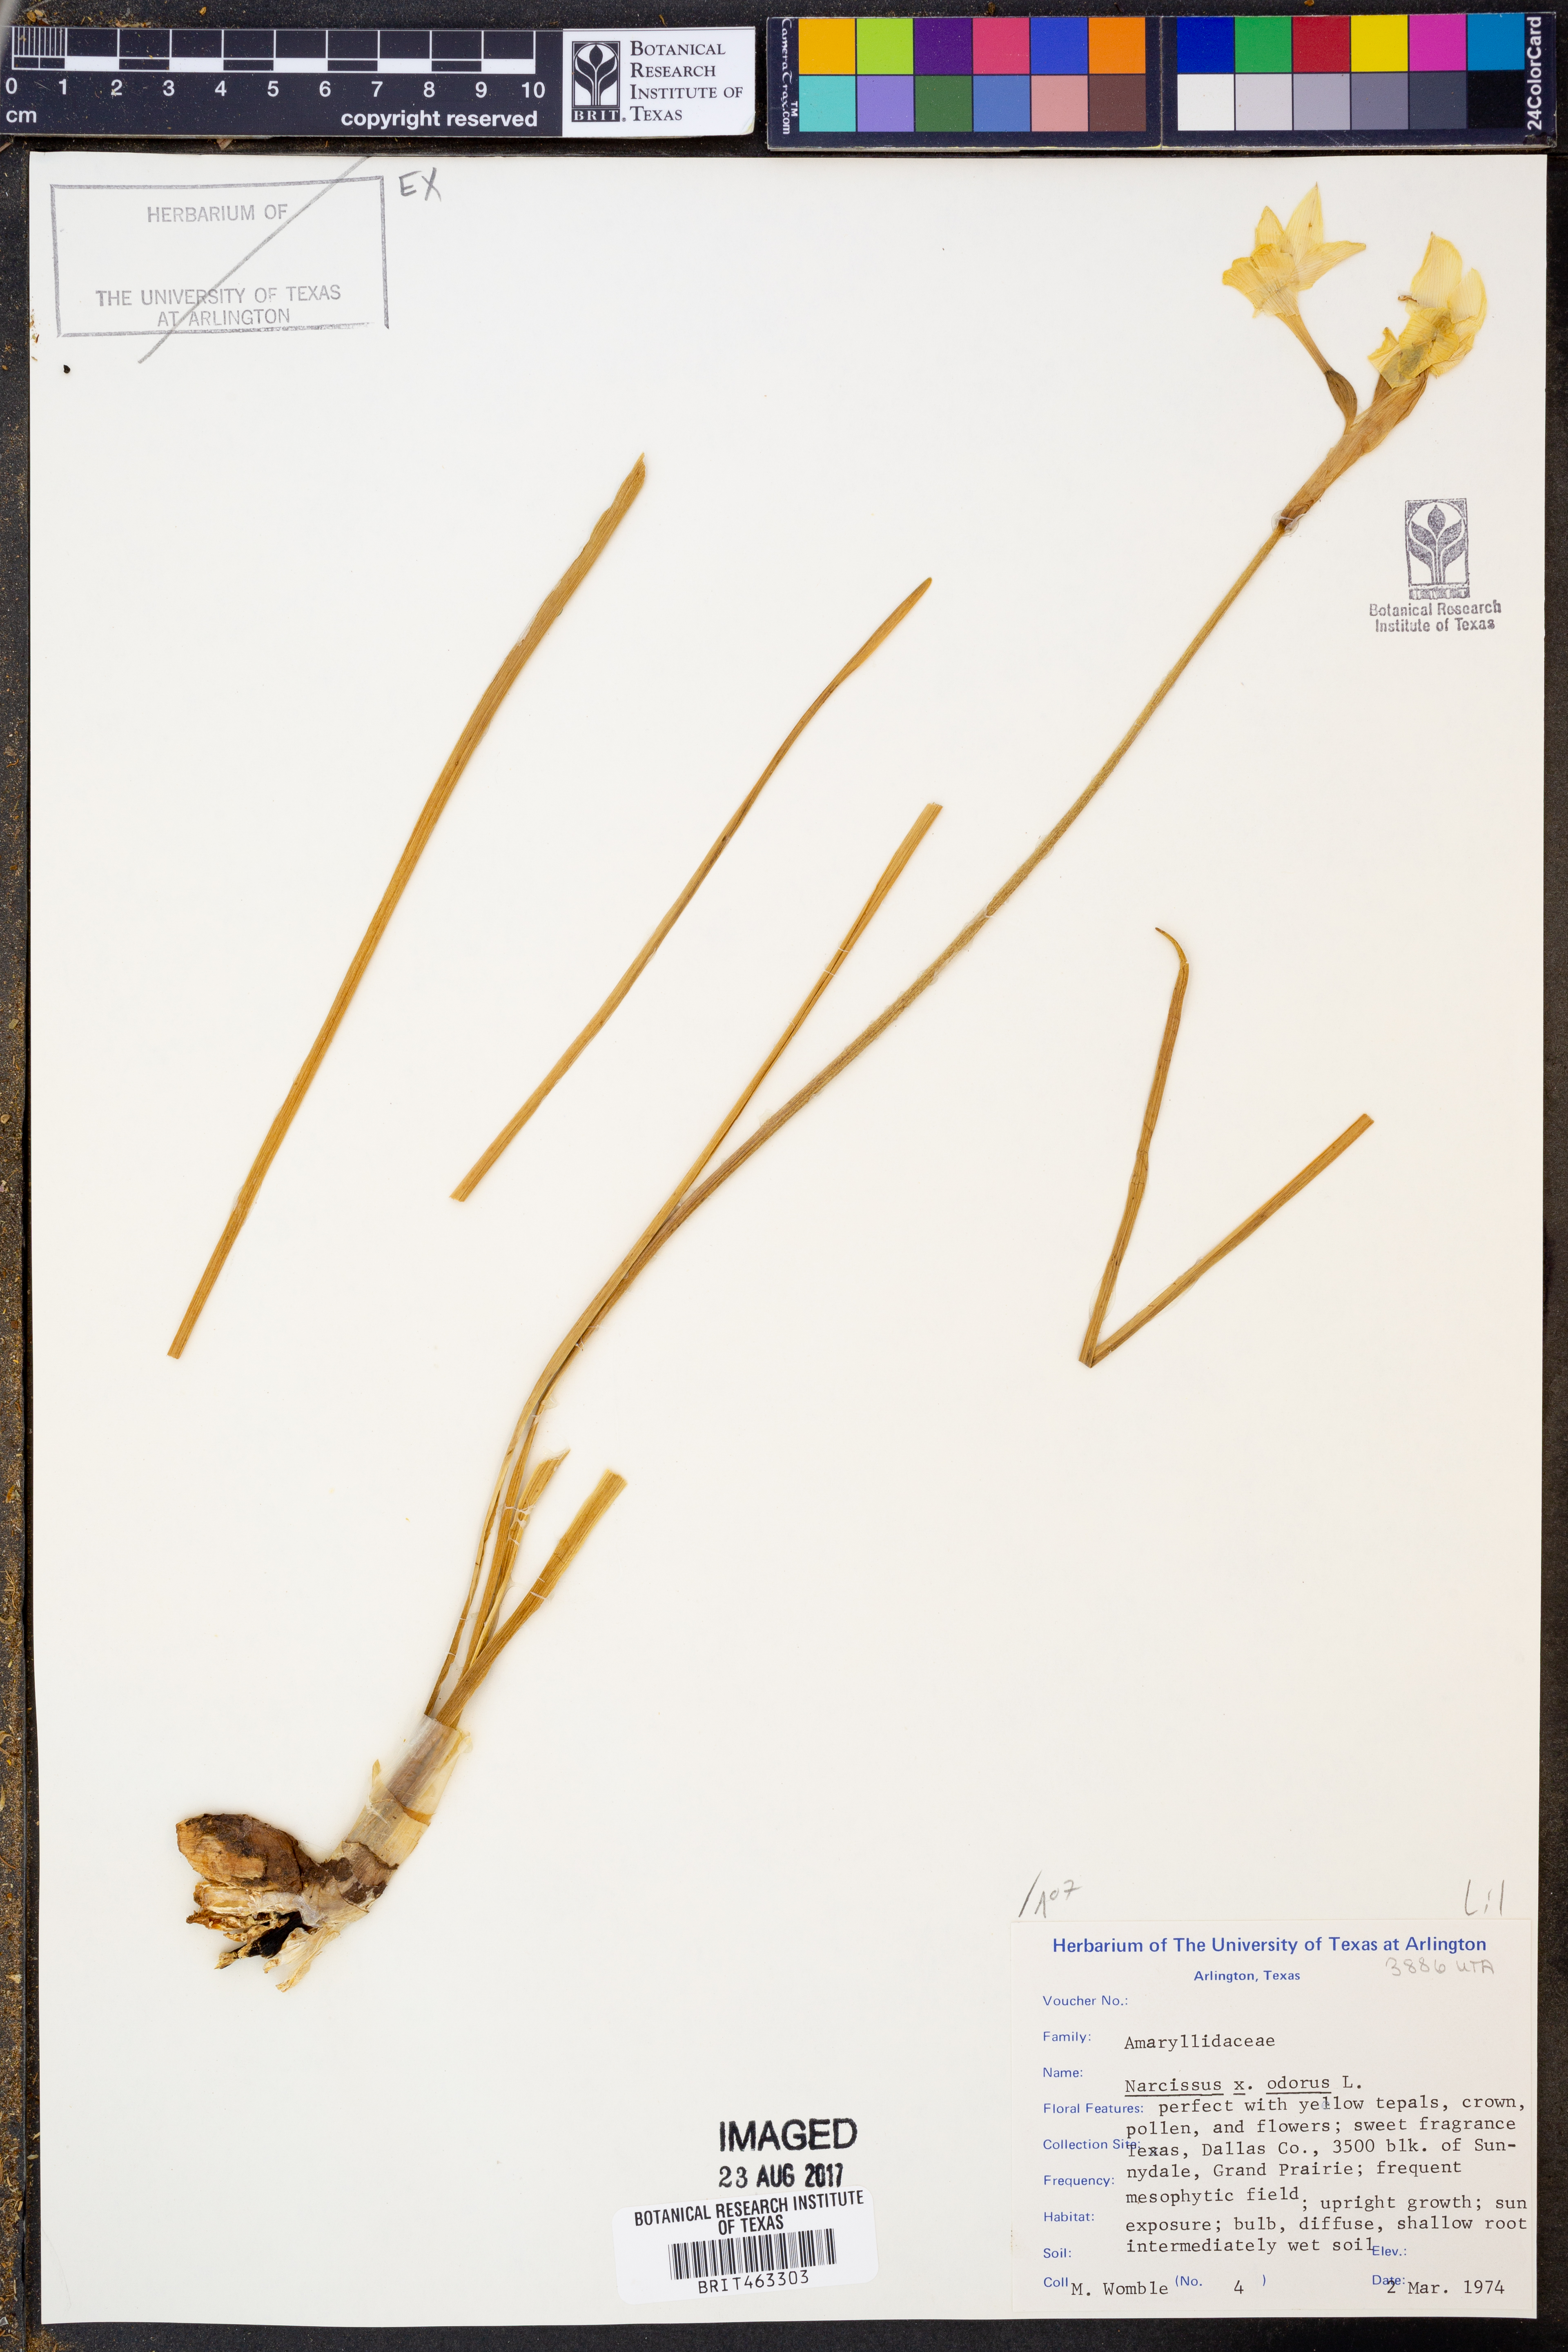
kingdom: Plantae
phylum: Tracheophyta
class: Liliopsida
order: Asparagales
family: Amaryllidaceae
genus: Narcissus
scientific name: Narcissus
